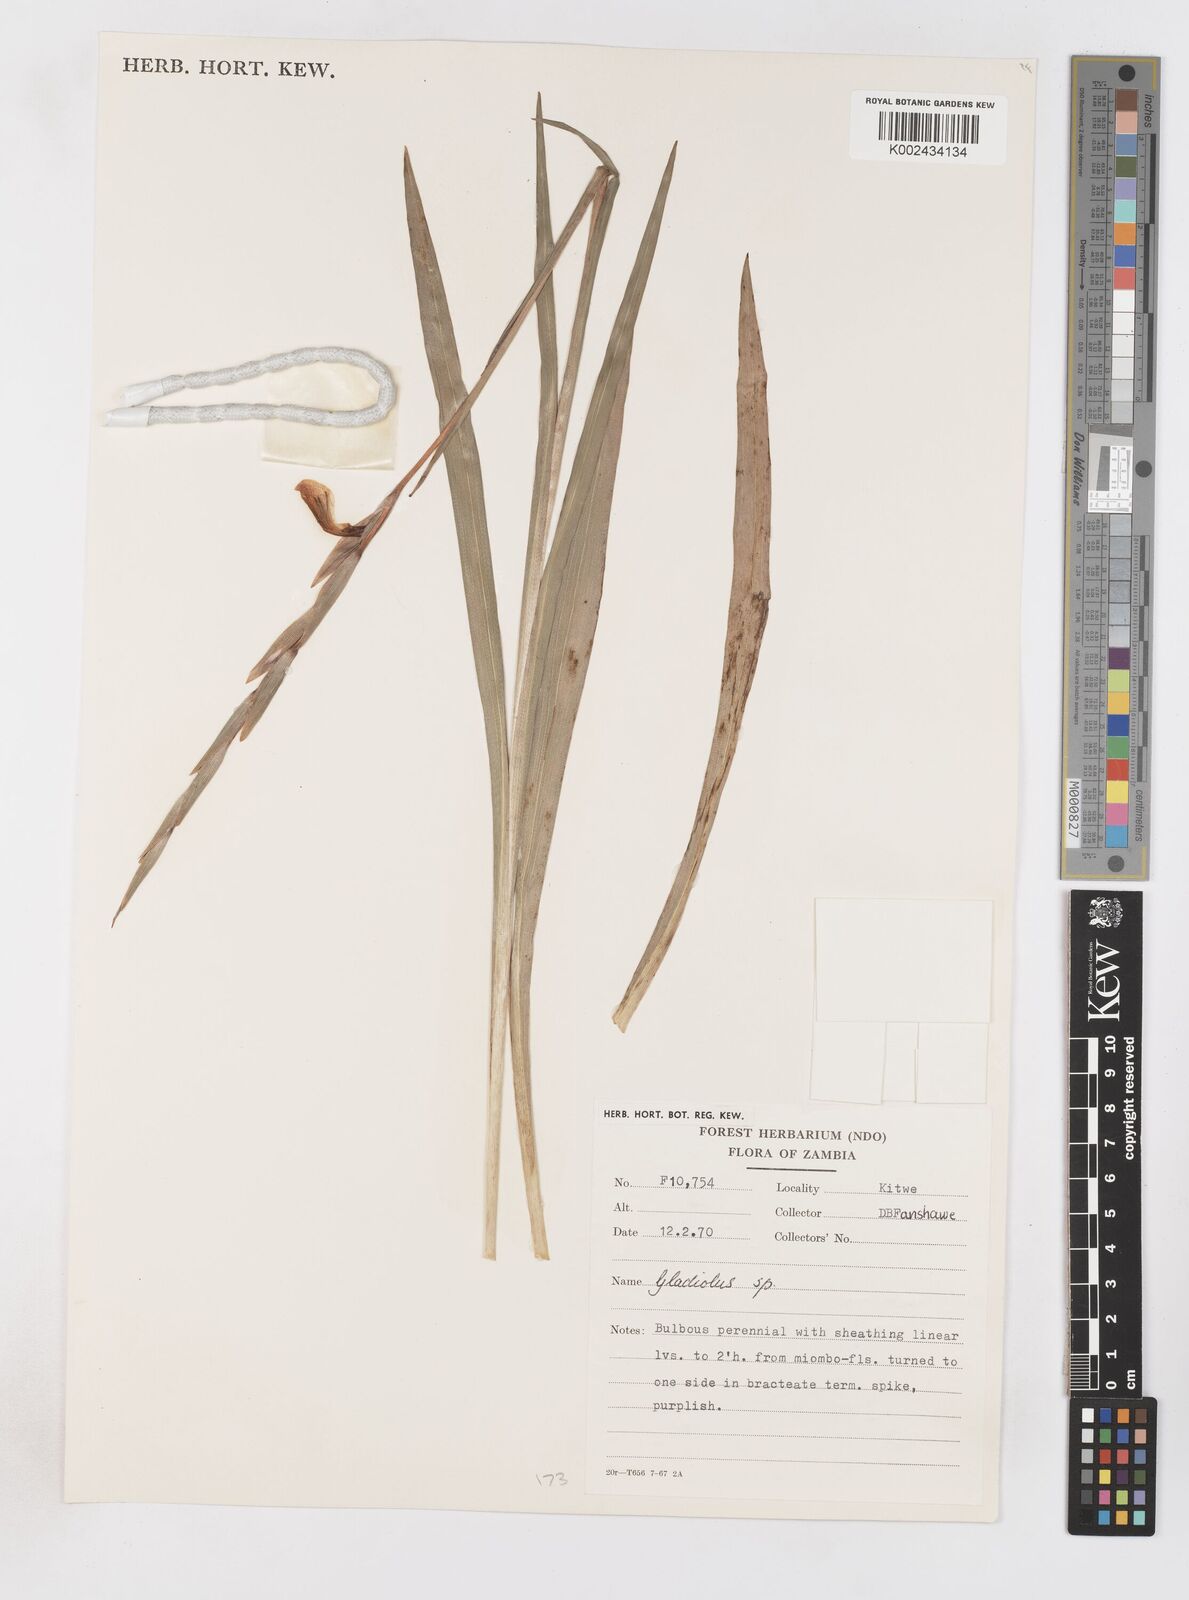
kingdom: Plantae
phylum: Tracheophyta
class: Liliopsida
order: Asparagales
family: Iridaceae
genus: Gladiolus
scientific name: Gladiolus gregarius
